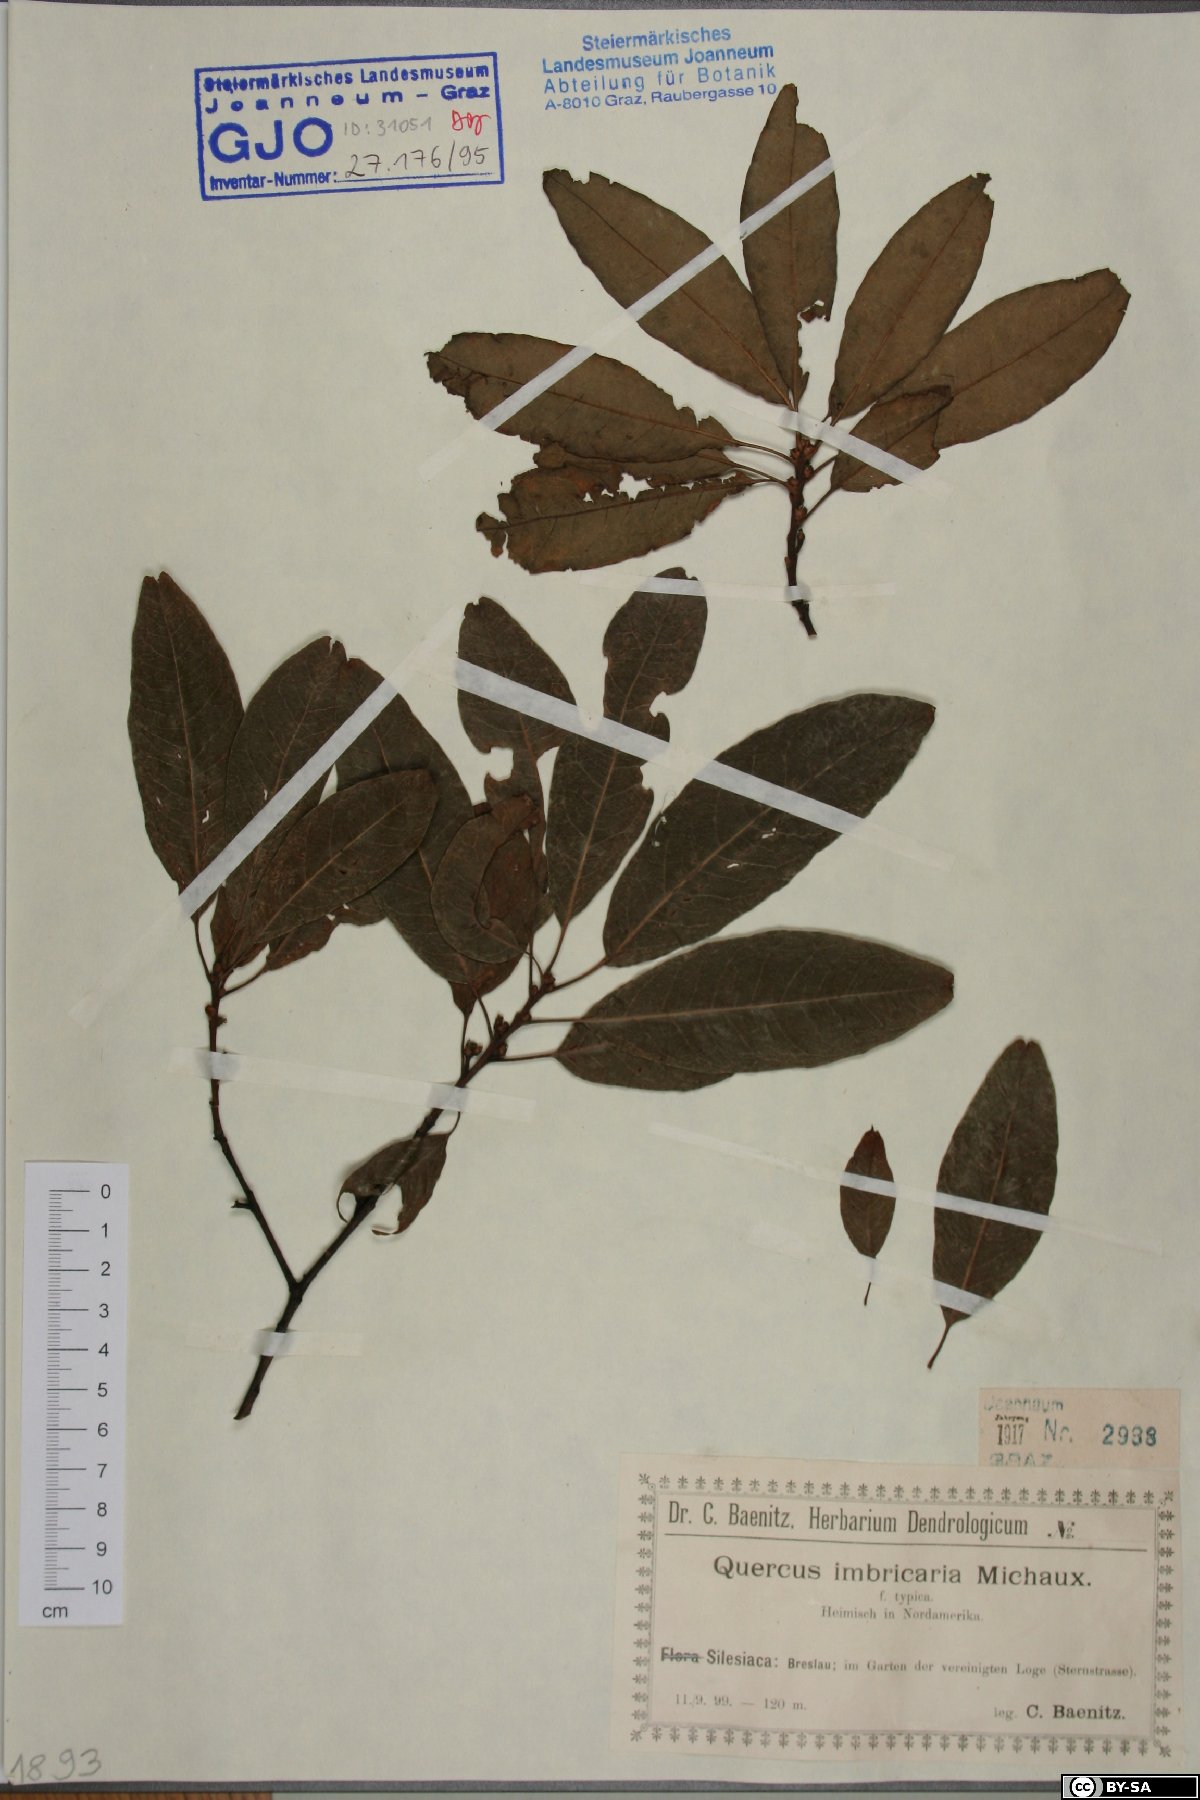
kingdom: Plantae
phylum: Tracheophyta
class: Magnoliopsida
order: Fagales
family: Fagaceae
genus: Quercus
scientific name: Quercus imbricaria
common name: Shingle oak
